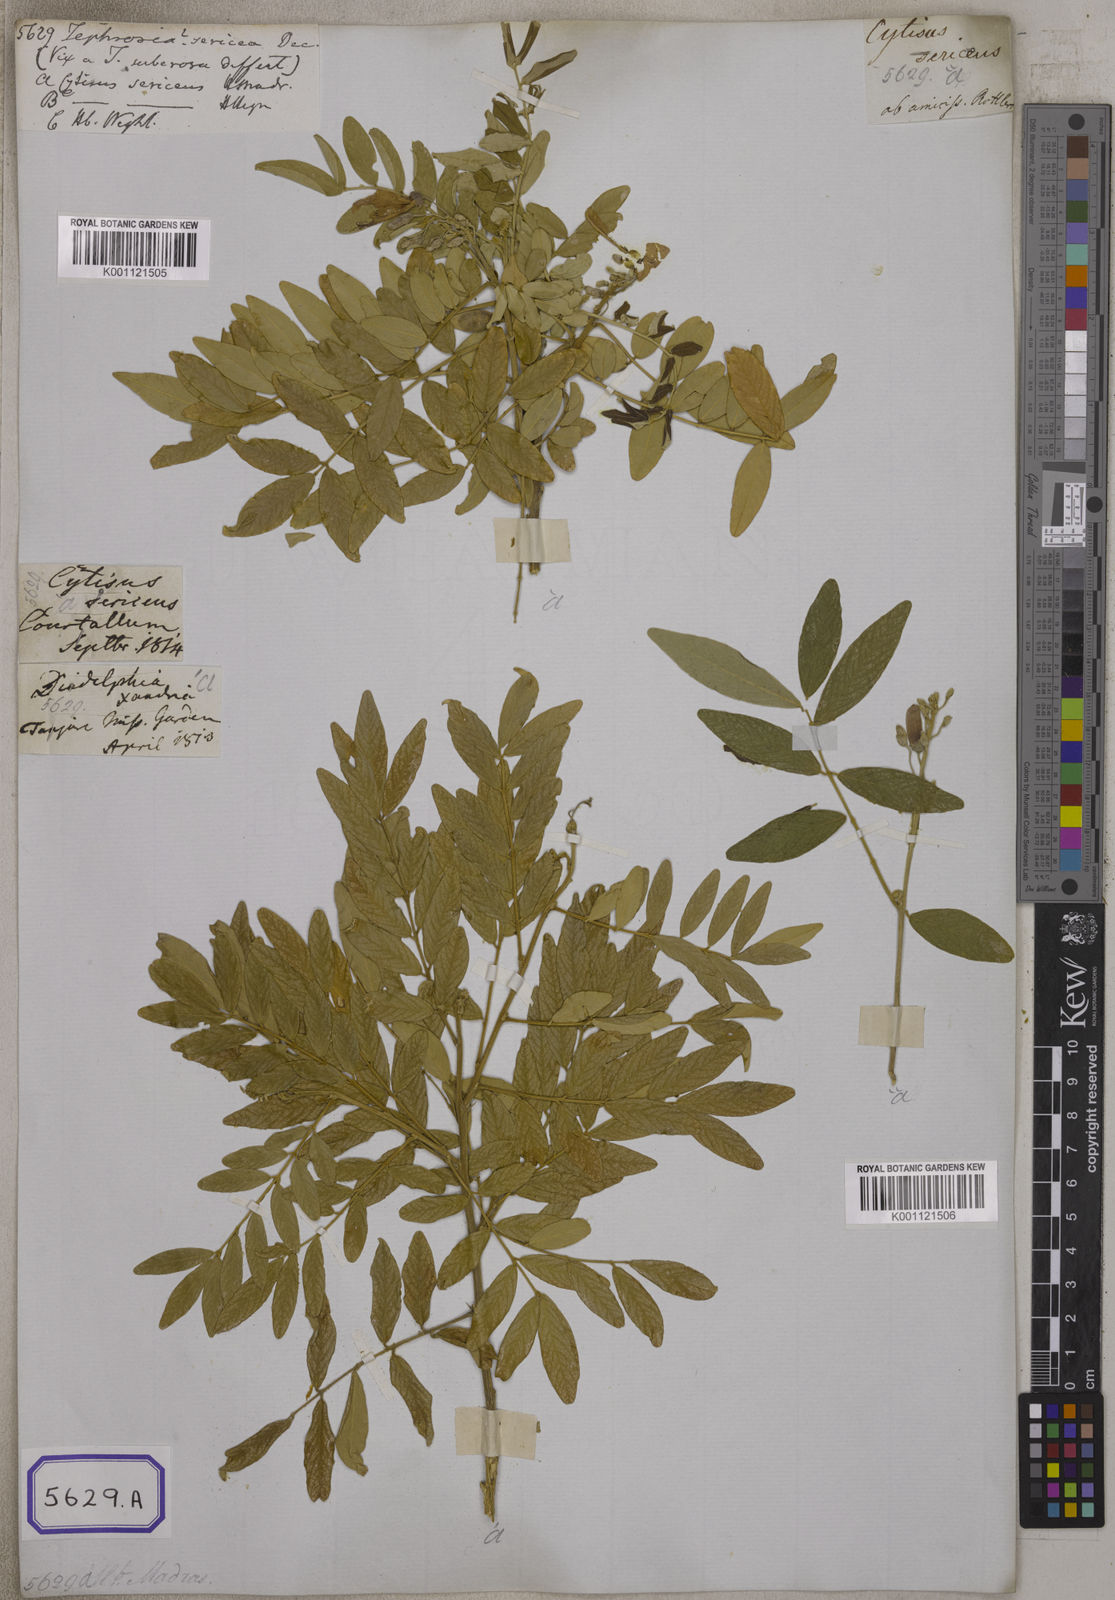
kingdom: Plantae
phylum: Tracheophyta
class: Magnoliopsida
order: Fabales
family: Fabaceae
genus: Mundulea
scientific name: Mundulea sericea
